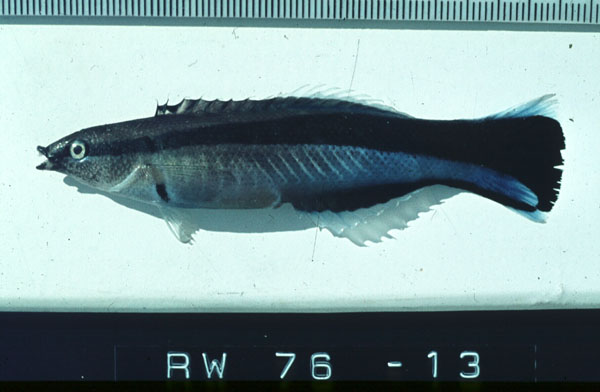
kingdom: Animalia
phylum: Chordata
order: Perciformes
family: Labridae
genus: Labroides
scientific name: Labroides dimidiatus
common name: Blue diesel wrasse
